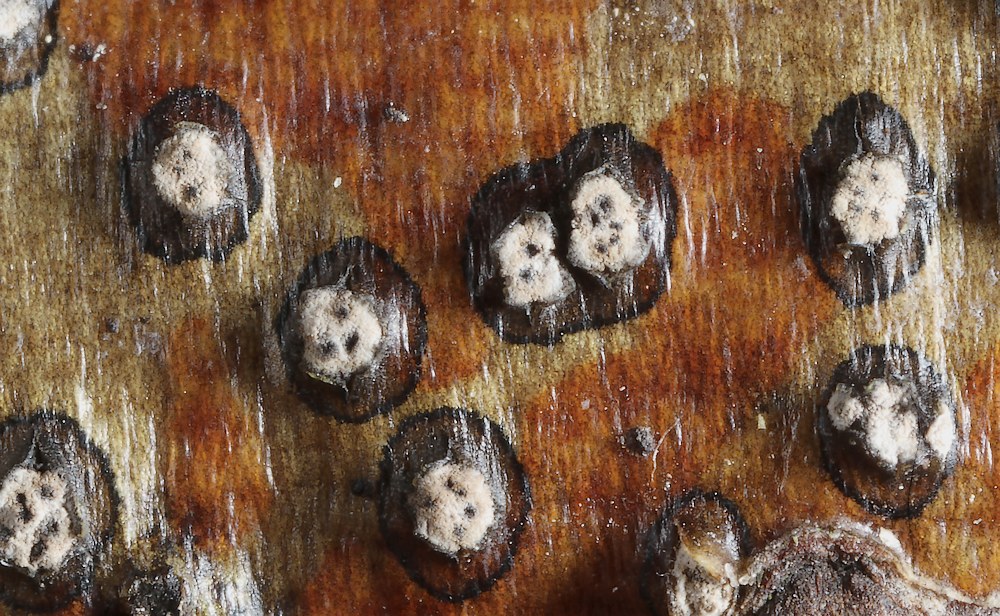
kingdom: Fungi
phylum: Ascomycota
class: Sordariomycetes
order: Diaporthales
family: Valsaceae
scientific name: Valsaceae
